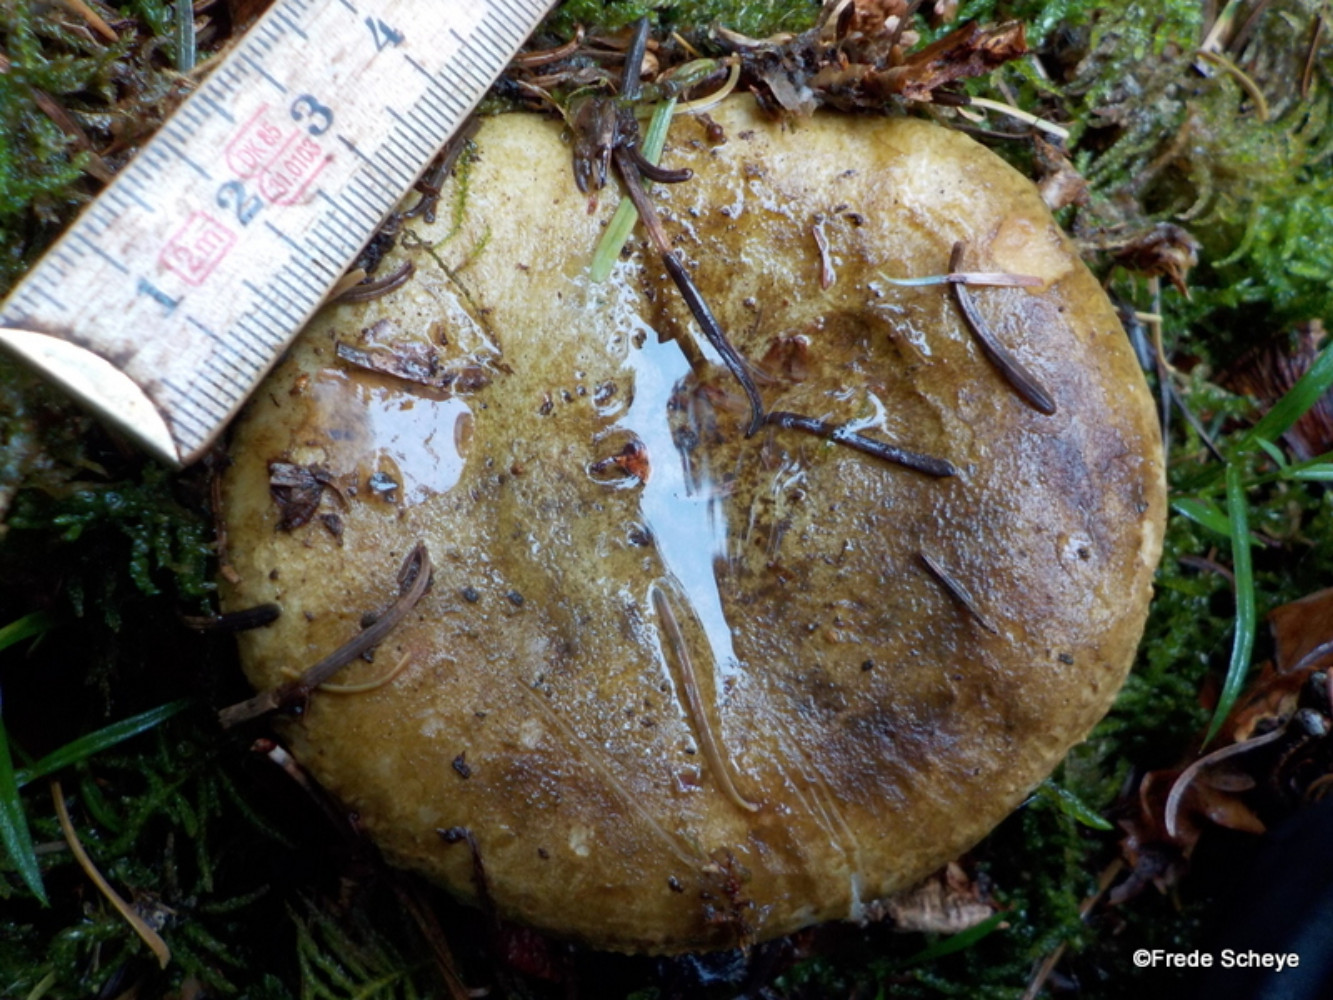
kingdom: Fungi
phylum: Basidiomycota
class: Agaricomycetes
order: Russulales
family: Russulaceae
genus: Lactarius
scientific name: Lactarius necator
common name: manddraber-mælkehat
